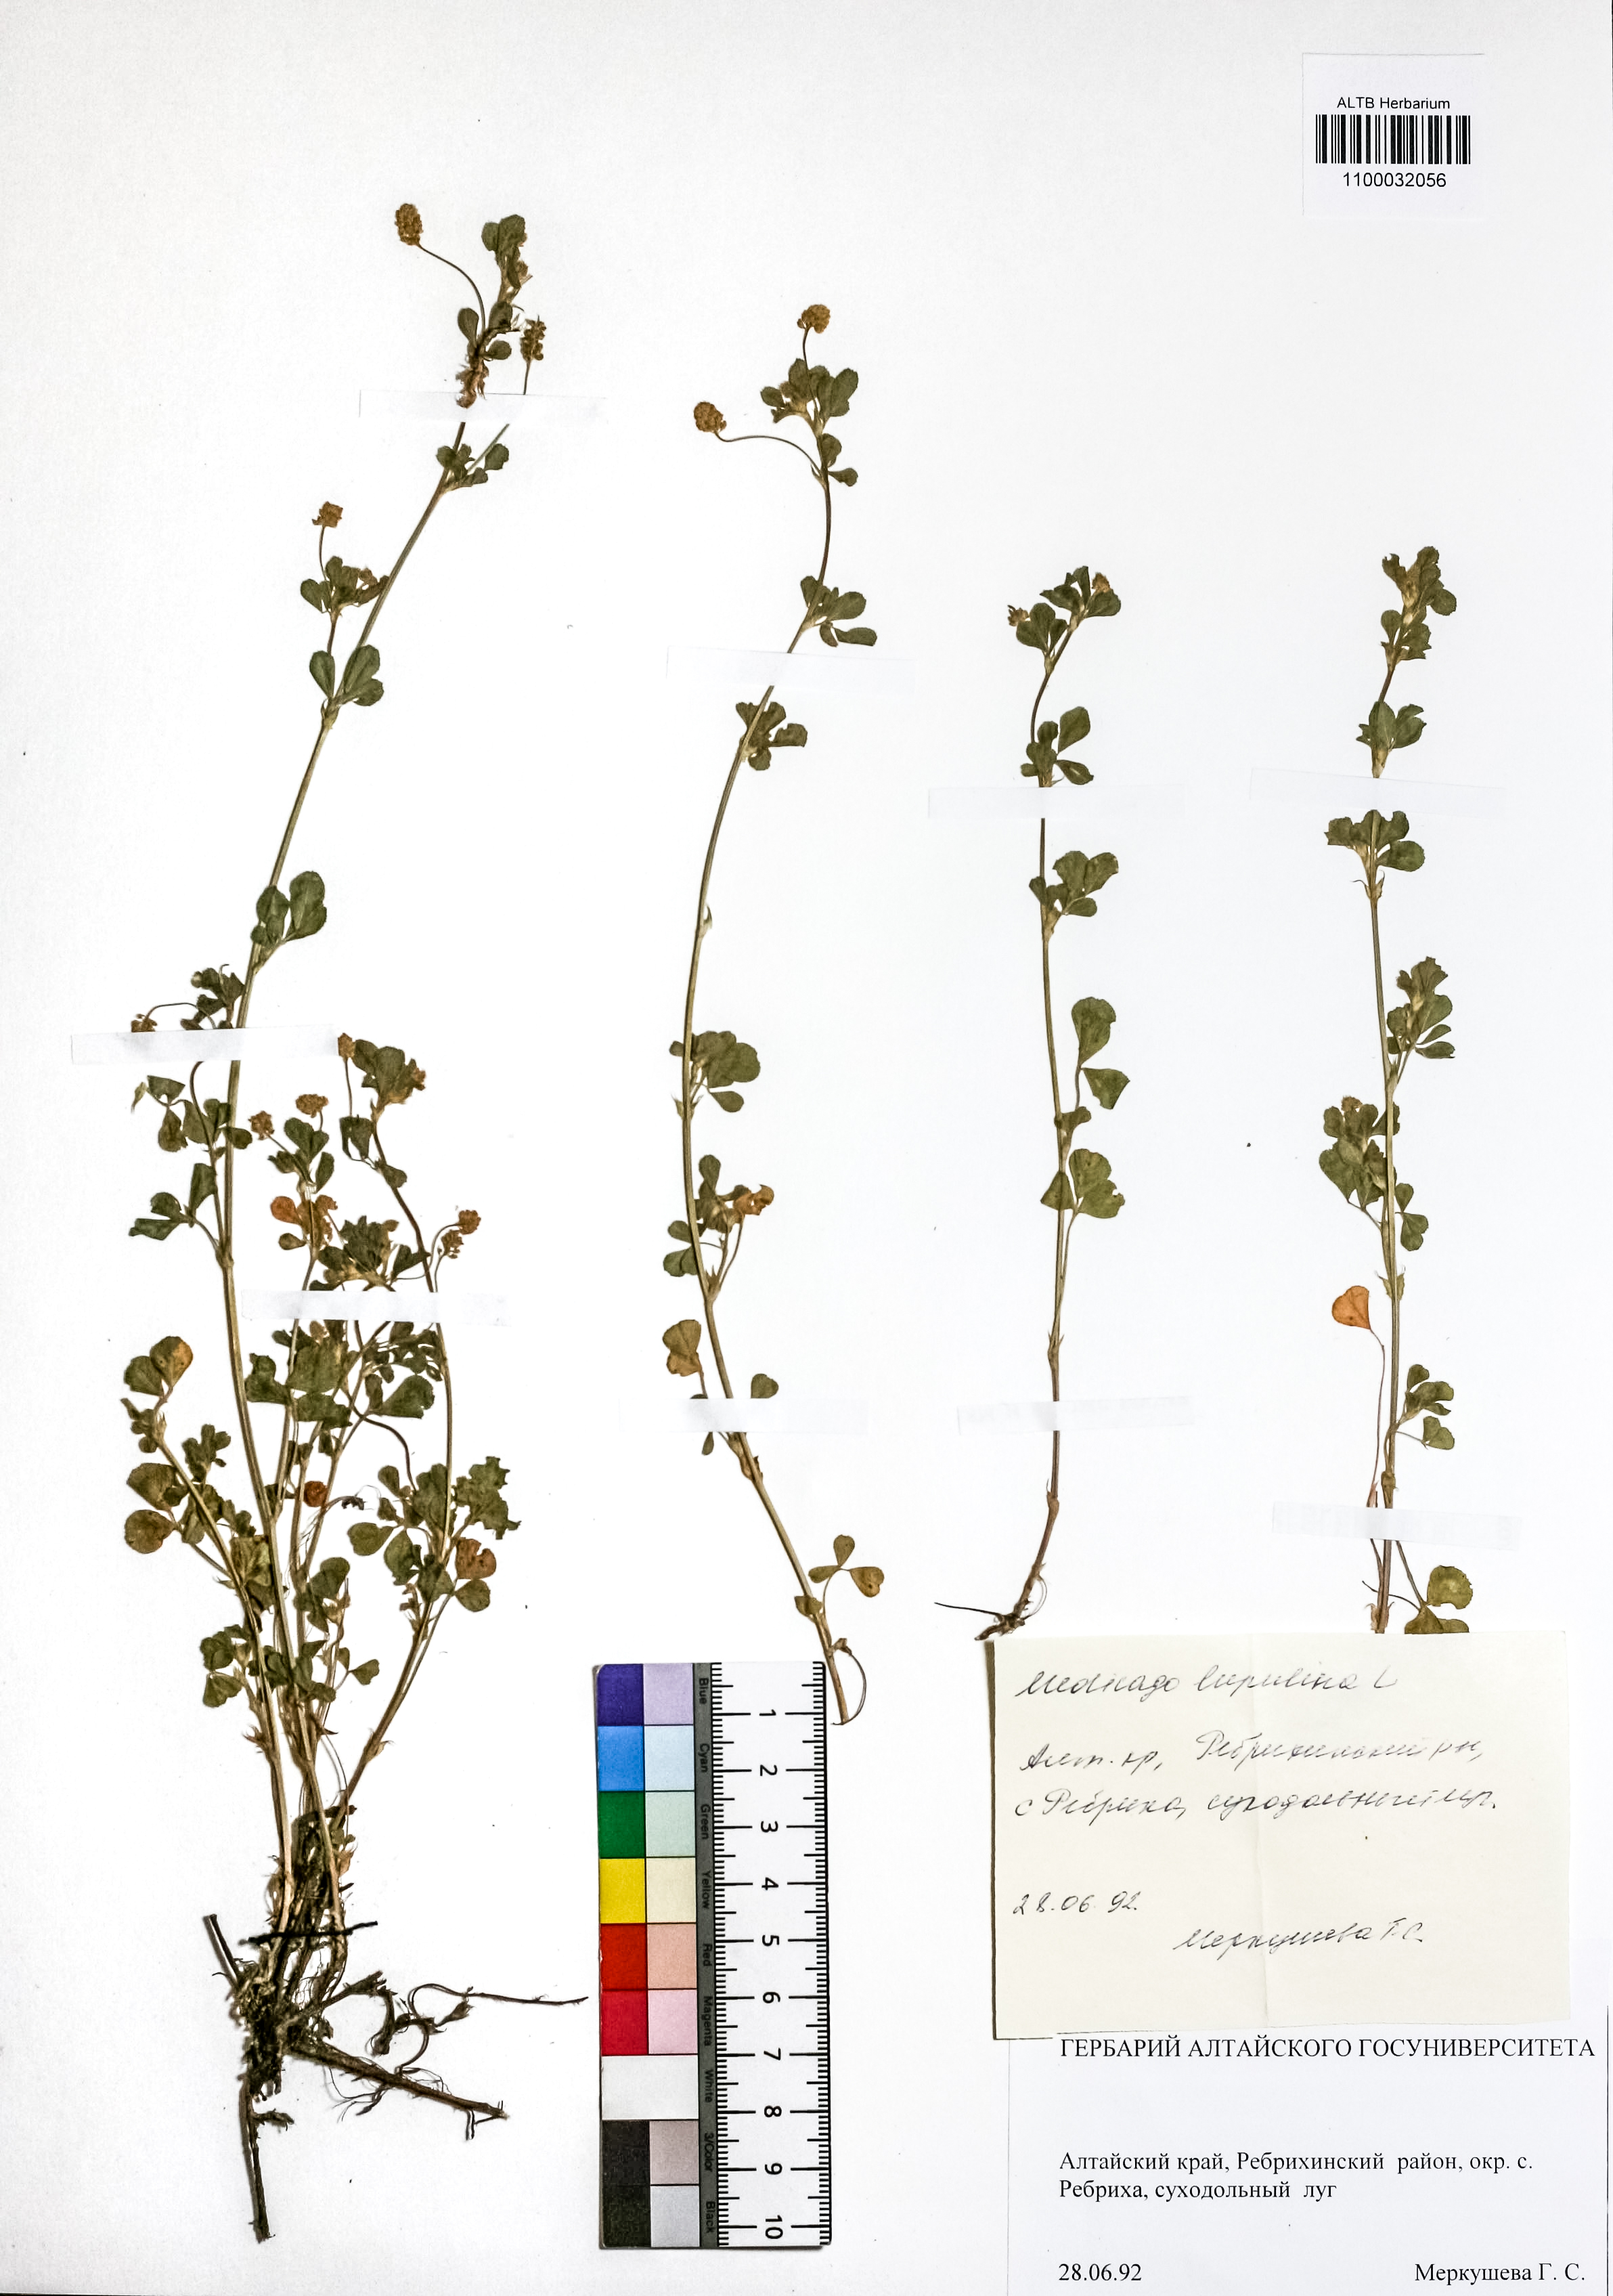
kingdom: Plantae
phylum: Tracheophyta
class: Magnoliopsida
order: Fabales
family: Fabaceae
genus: Medicago
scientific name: Medicago lupulina
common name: Black medick
